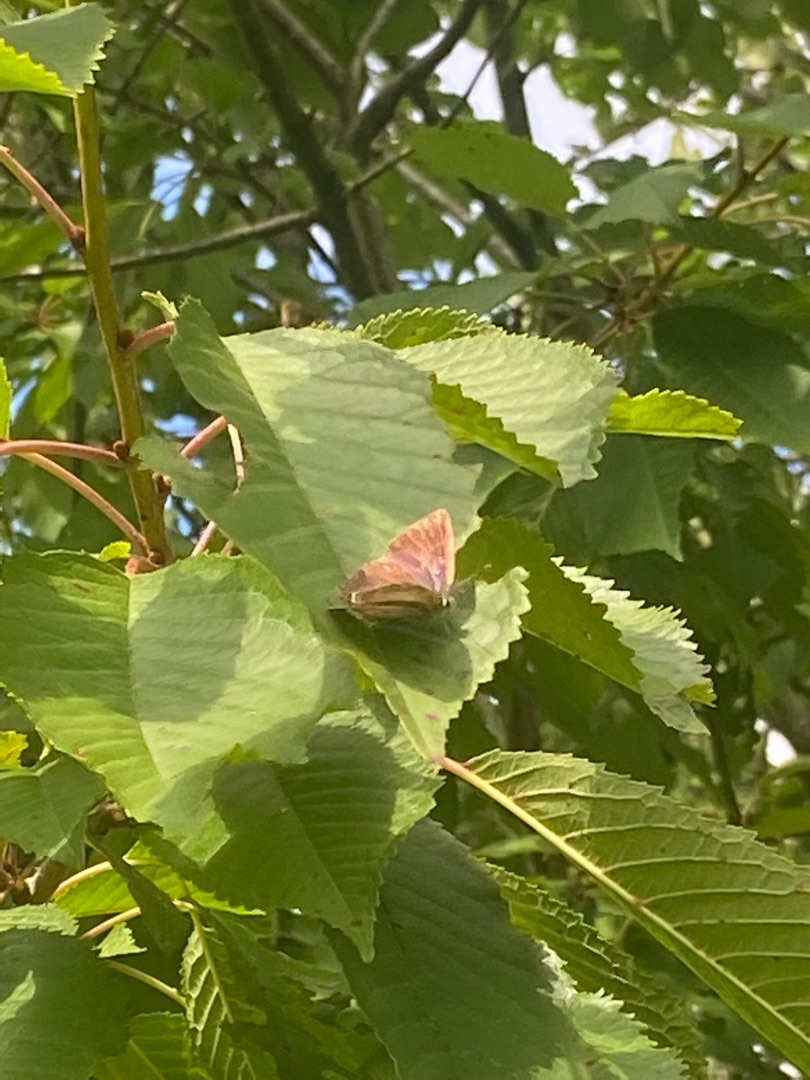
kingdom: Animalia
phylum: Arthropoda
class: Insecta
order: Lepidoptera
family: Lycaenidae
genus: Quercusia
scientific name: Quercusia quercus
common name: Blåhale
